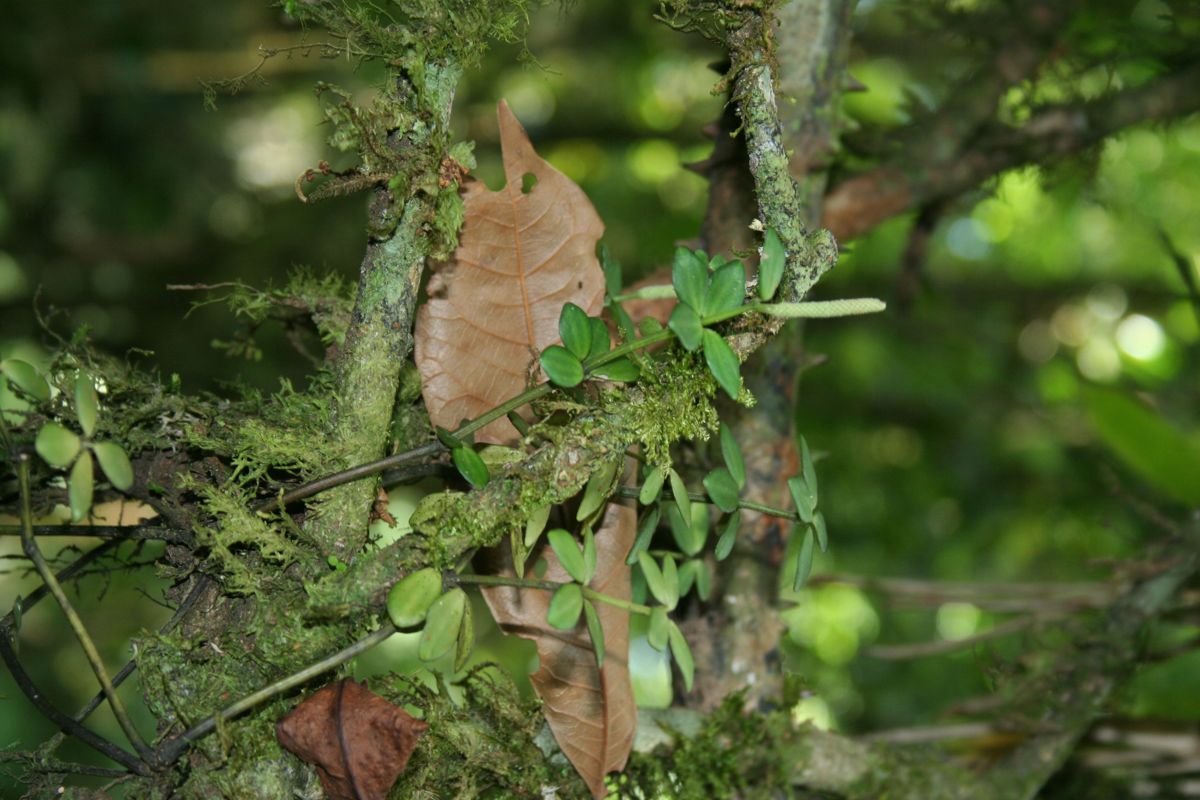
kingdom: Plantae
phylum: Tracheophyta
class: Magnoliopsida
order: Piperales
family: Piperaceae
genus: Peperomia
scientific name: Peperomia dendrophila
